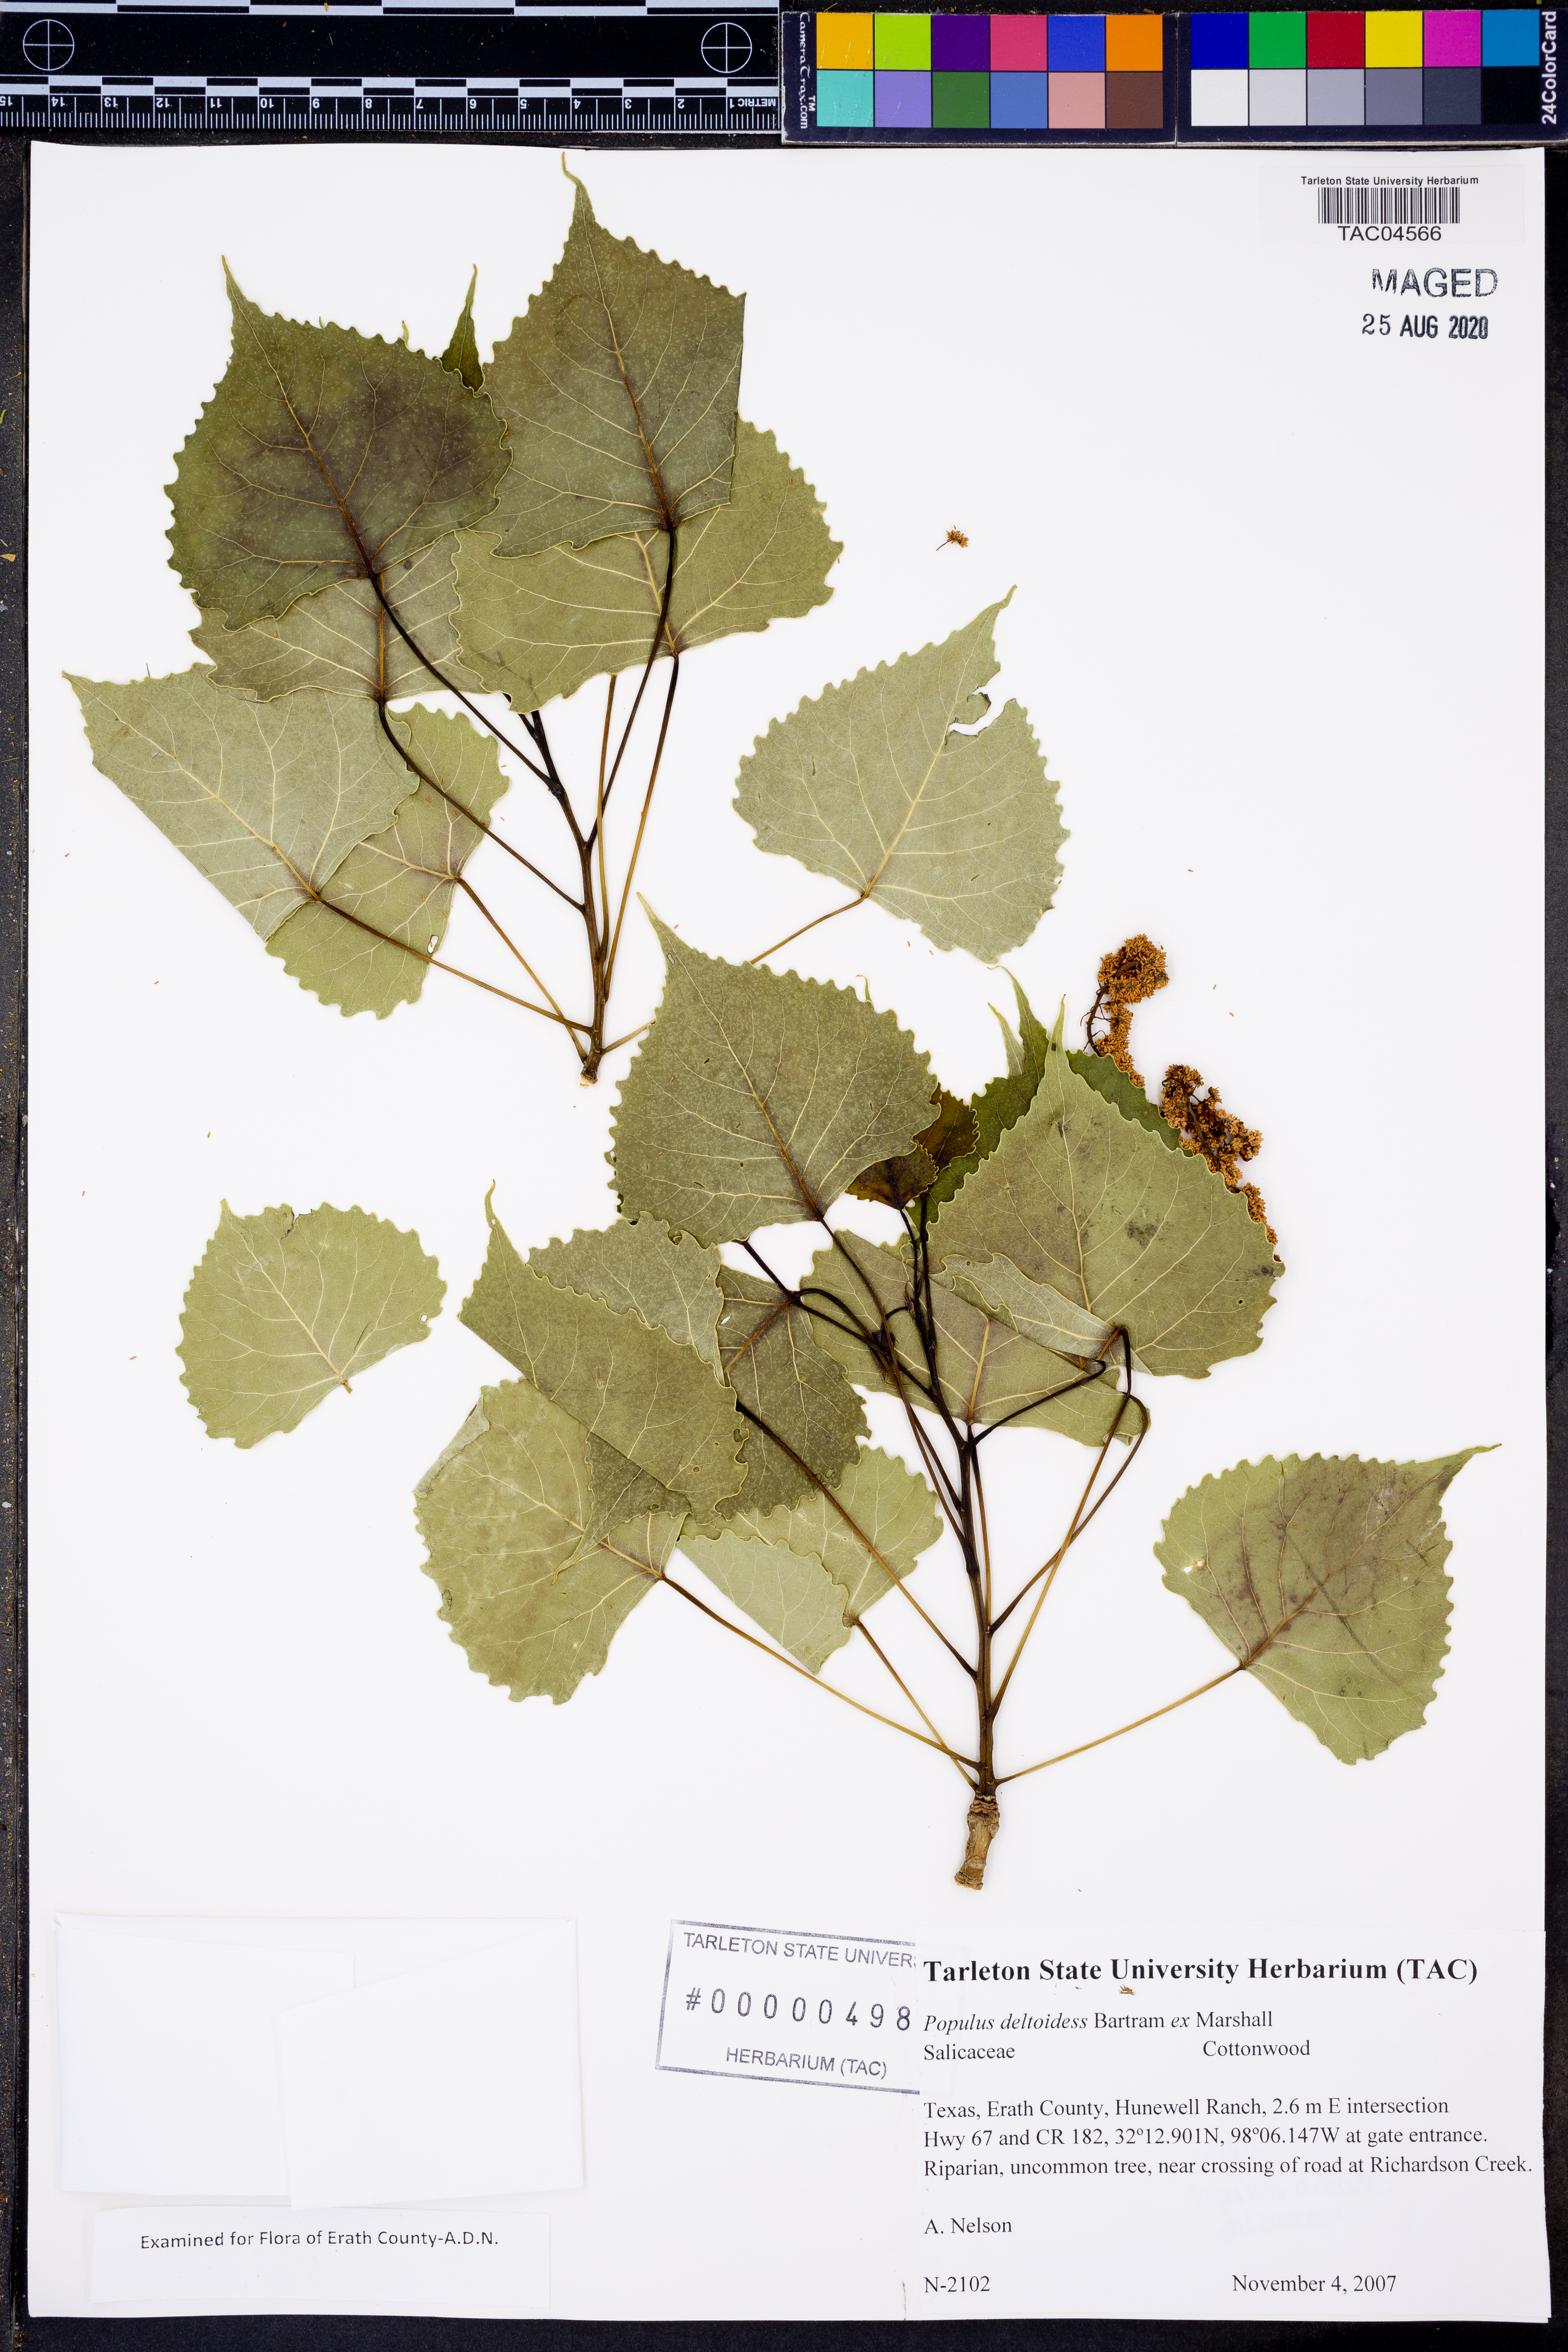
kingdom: Plantae
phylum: Tracheophyta
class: Magnoliopsida
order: Malpighiales
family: Salicaceae
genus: Populus
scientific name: Populus deltoides
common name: Eastern cottonwood
